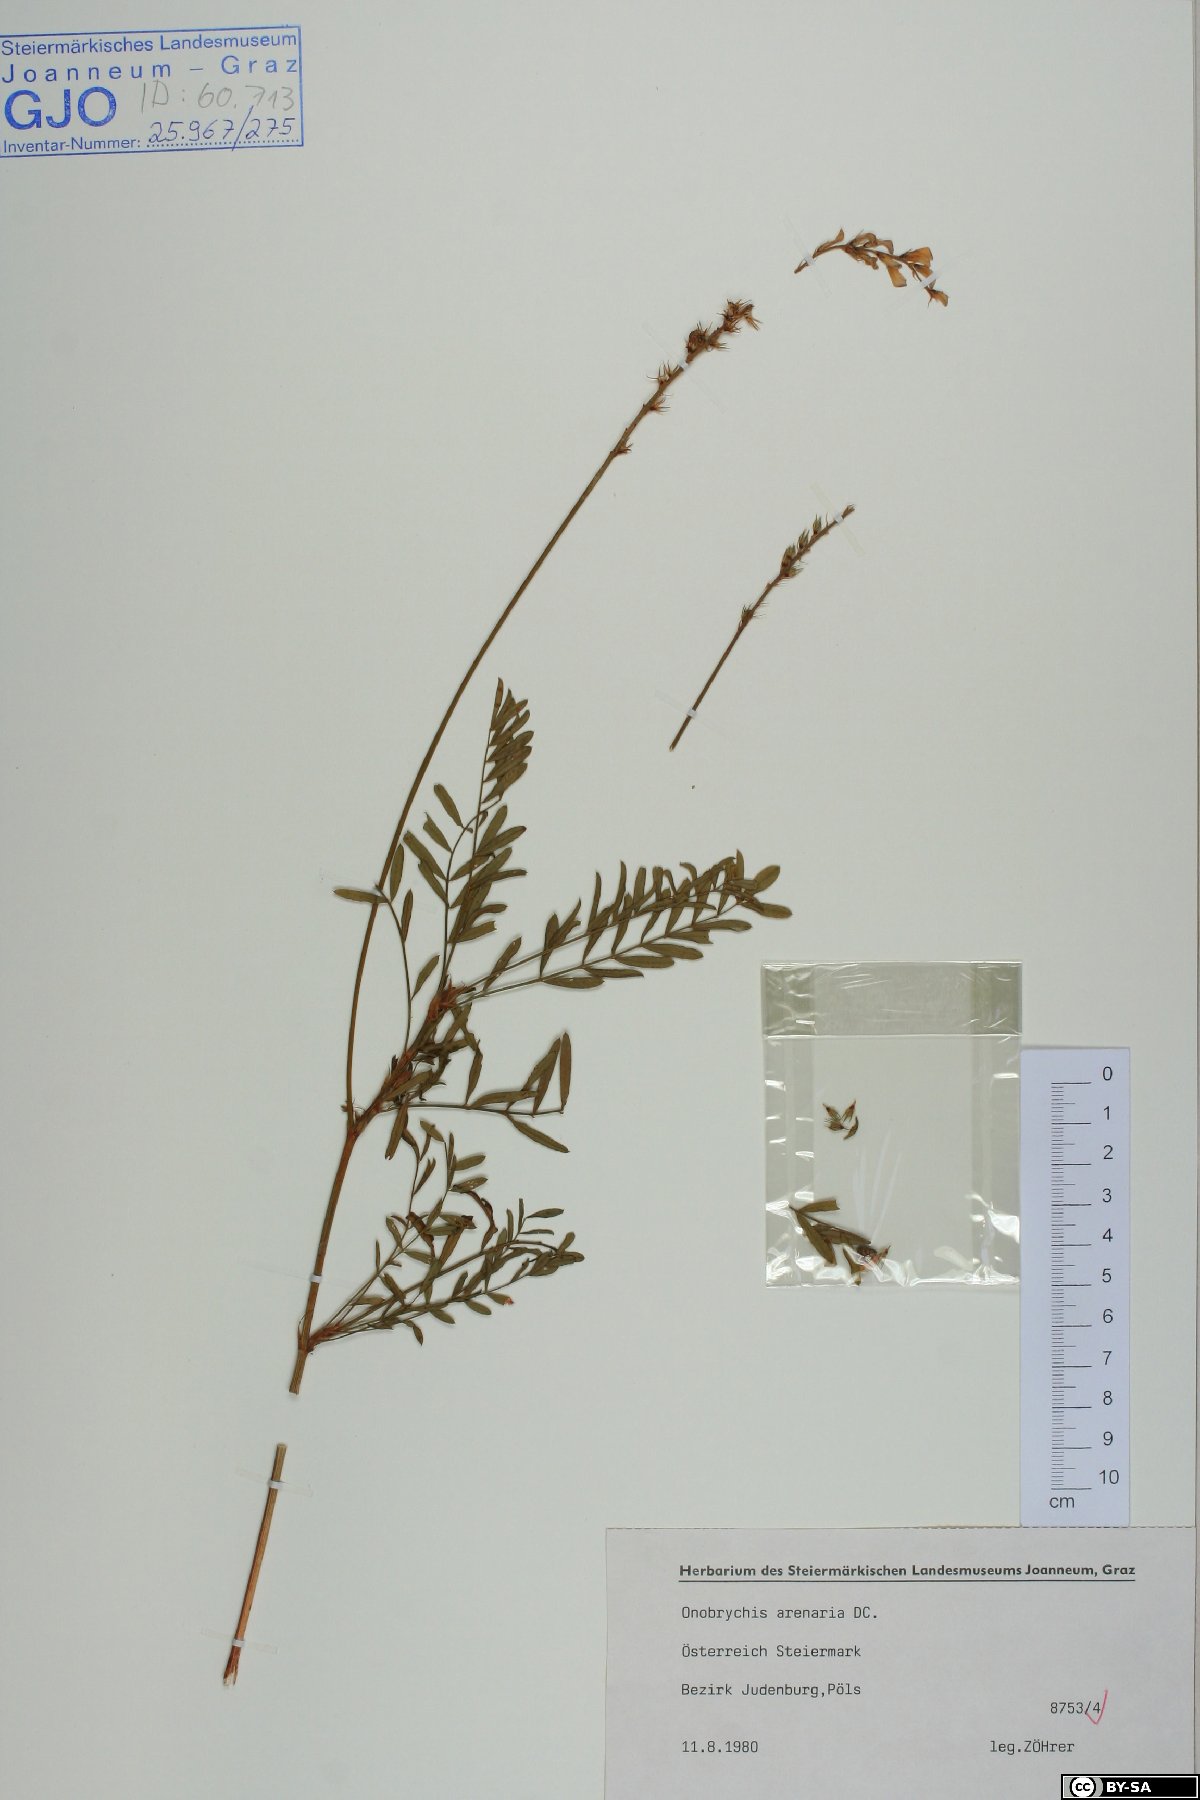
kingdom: Plantae
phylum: Tracheophyta
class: Magnoliopsida
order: Fabales
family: Fabaceae
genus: Onobrychis
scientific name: Onobrychis arenaria
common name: Sand esparcet
